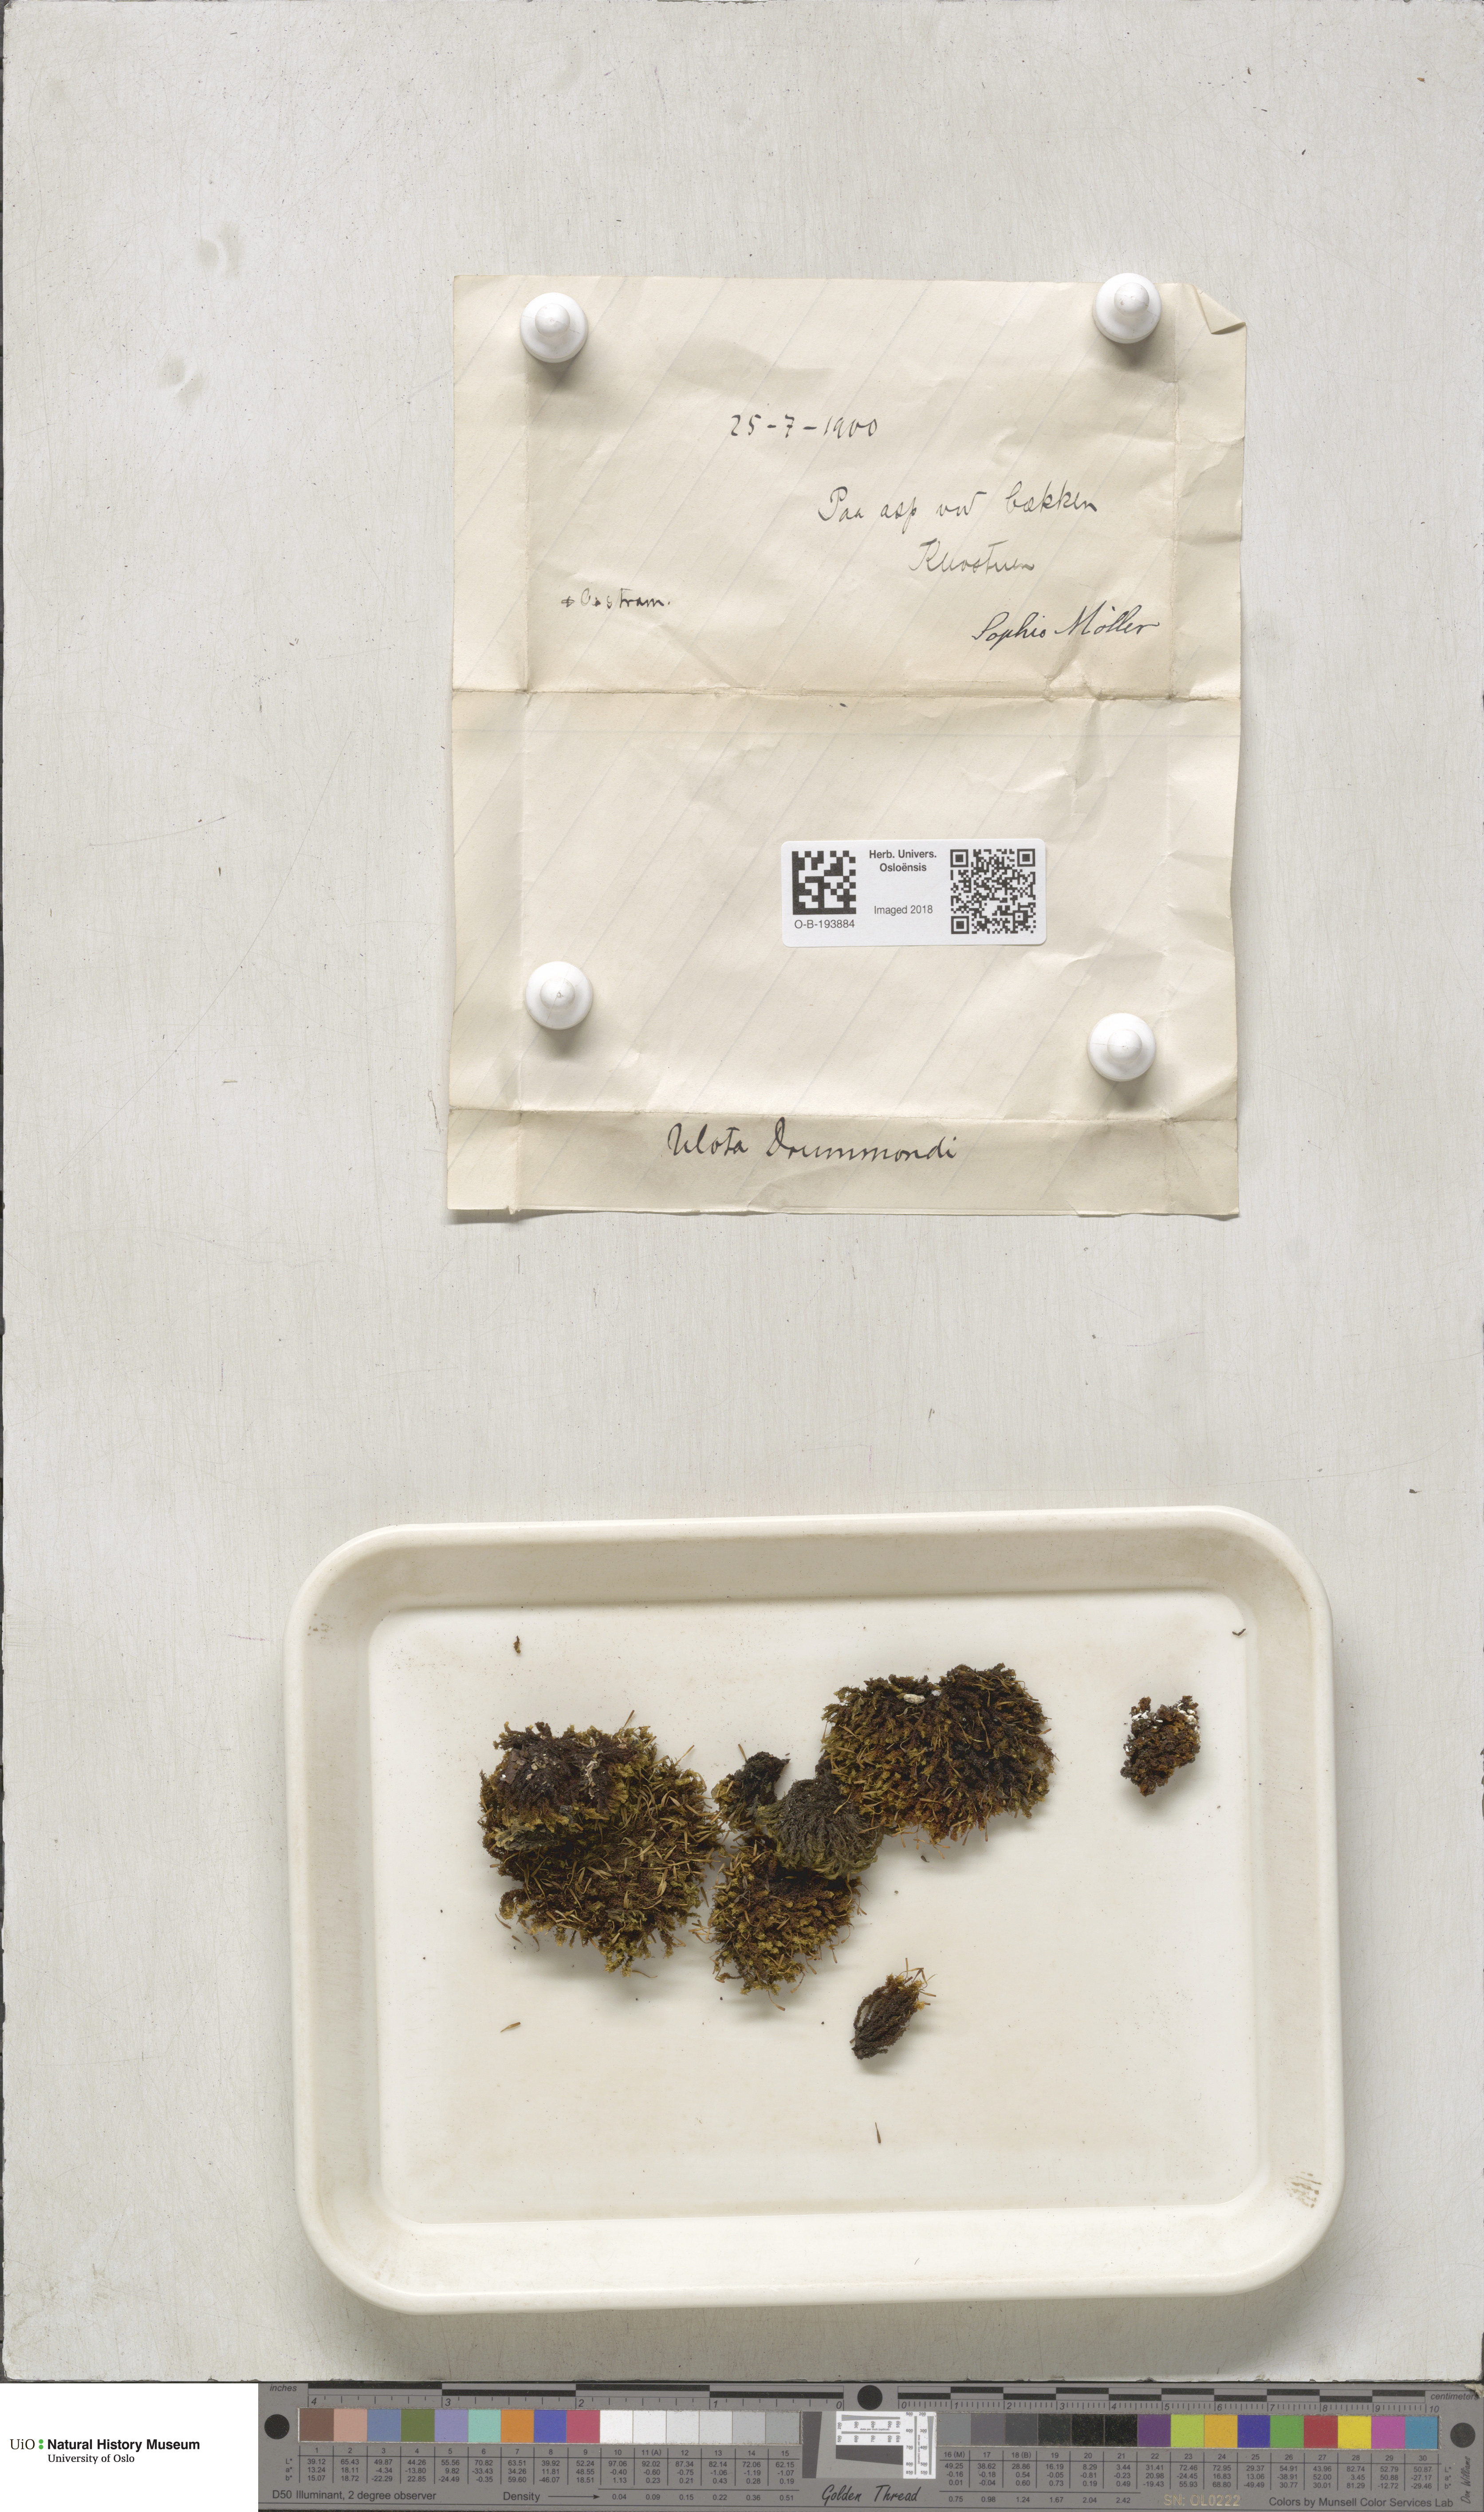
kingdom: Plantae
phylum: Bryophyta
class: Bryopsida
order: Orthotrichales
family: Orthotrichaceae
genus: Ulota
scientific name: Ulota drummondii
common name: Drummond's pincushion moss
